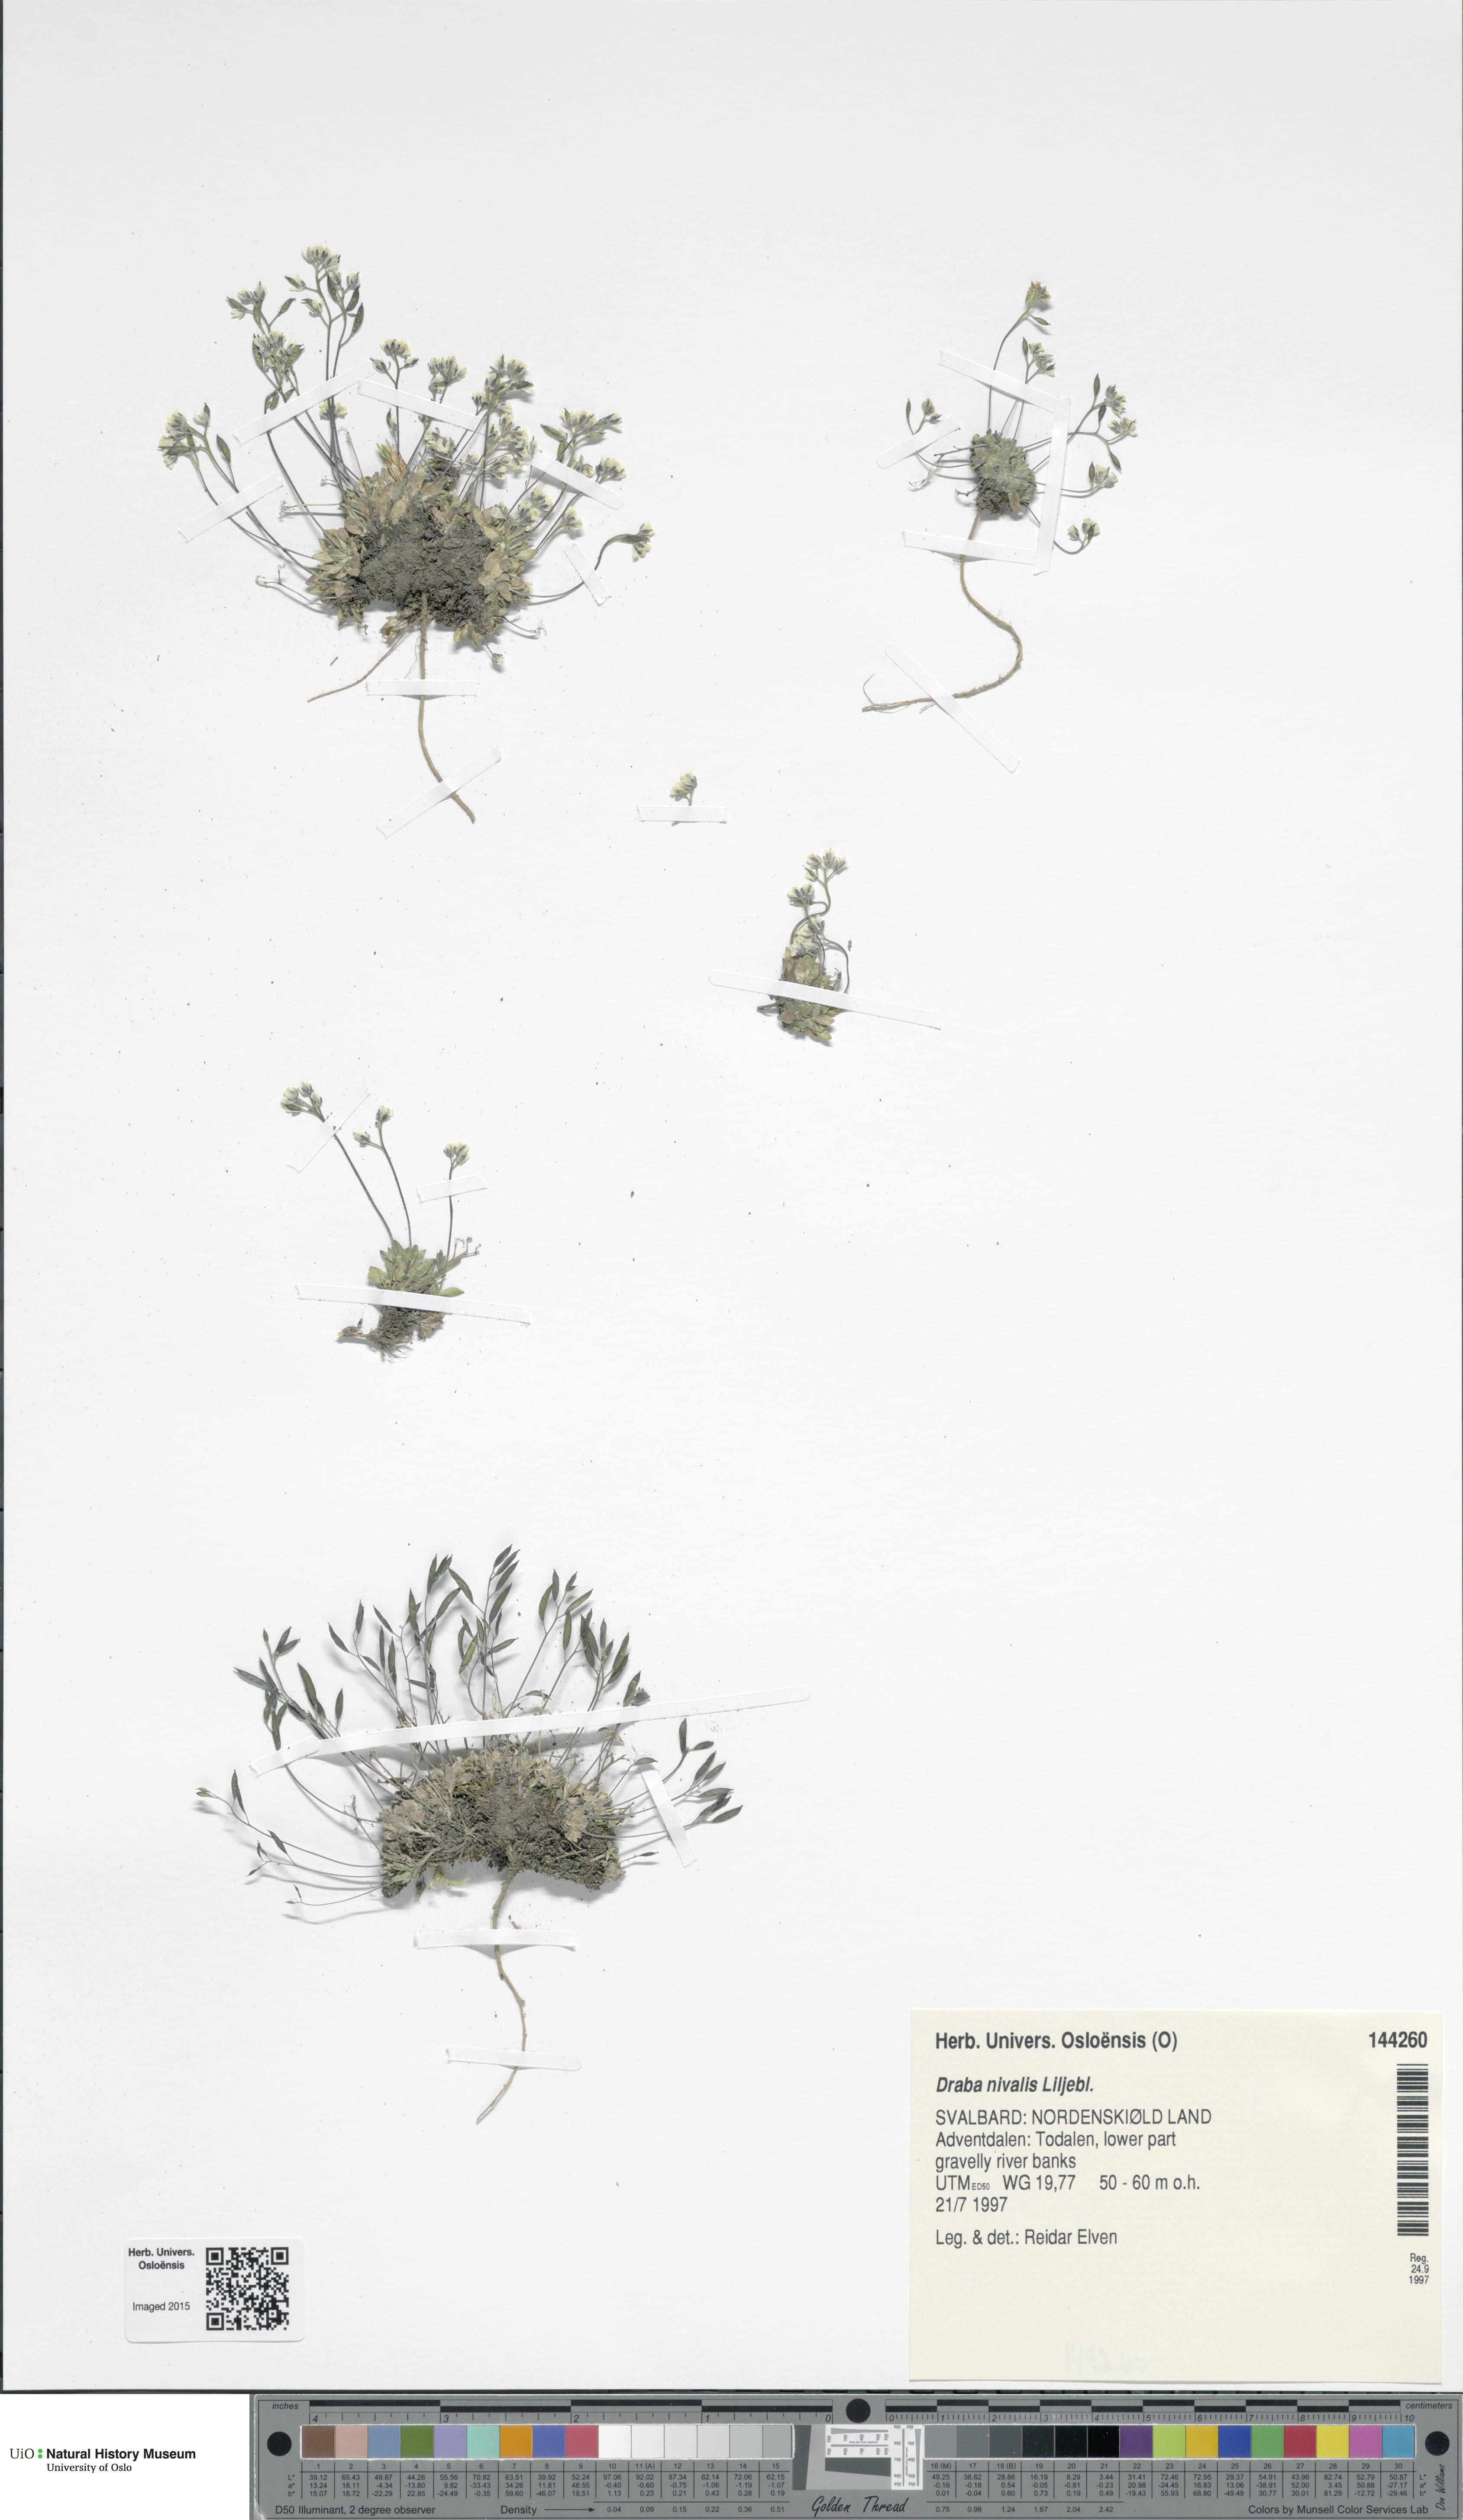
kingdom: Plantae
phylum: Tracheophyta
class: Magnoliopsida
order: Brassicales
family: Brassicaceae
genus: Draba
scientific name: Draba nivalis
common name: Snow draba
